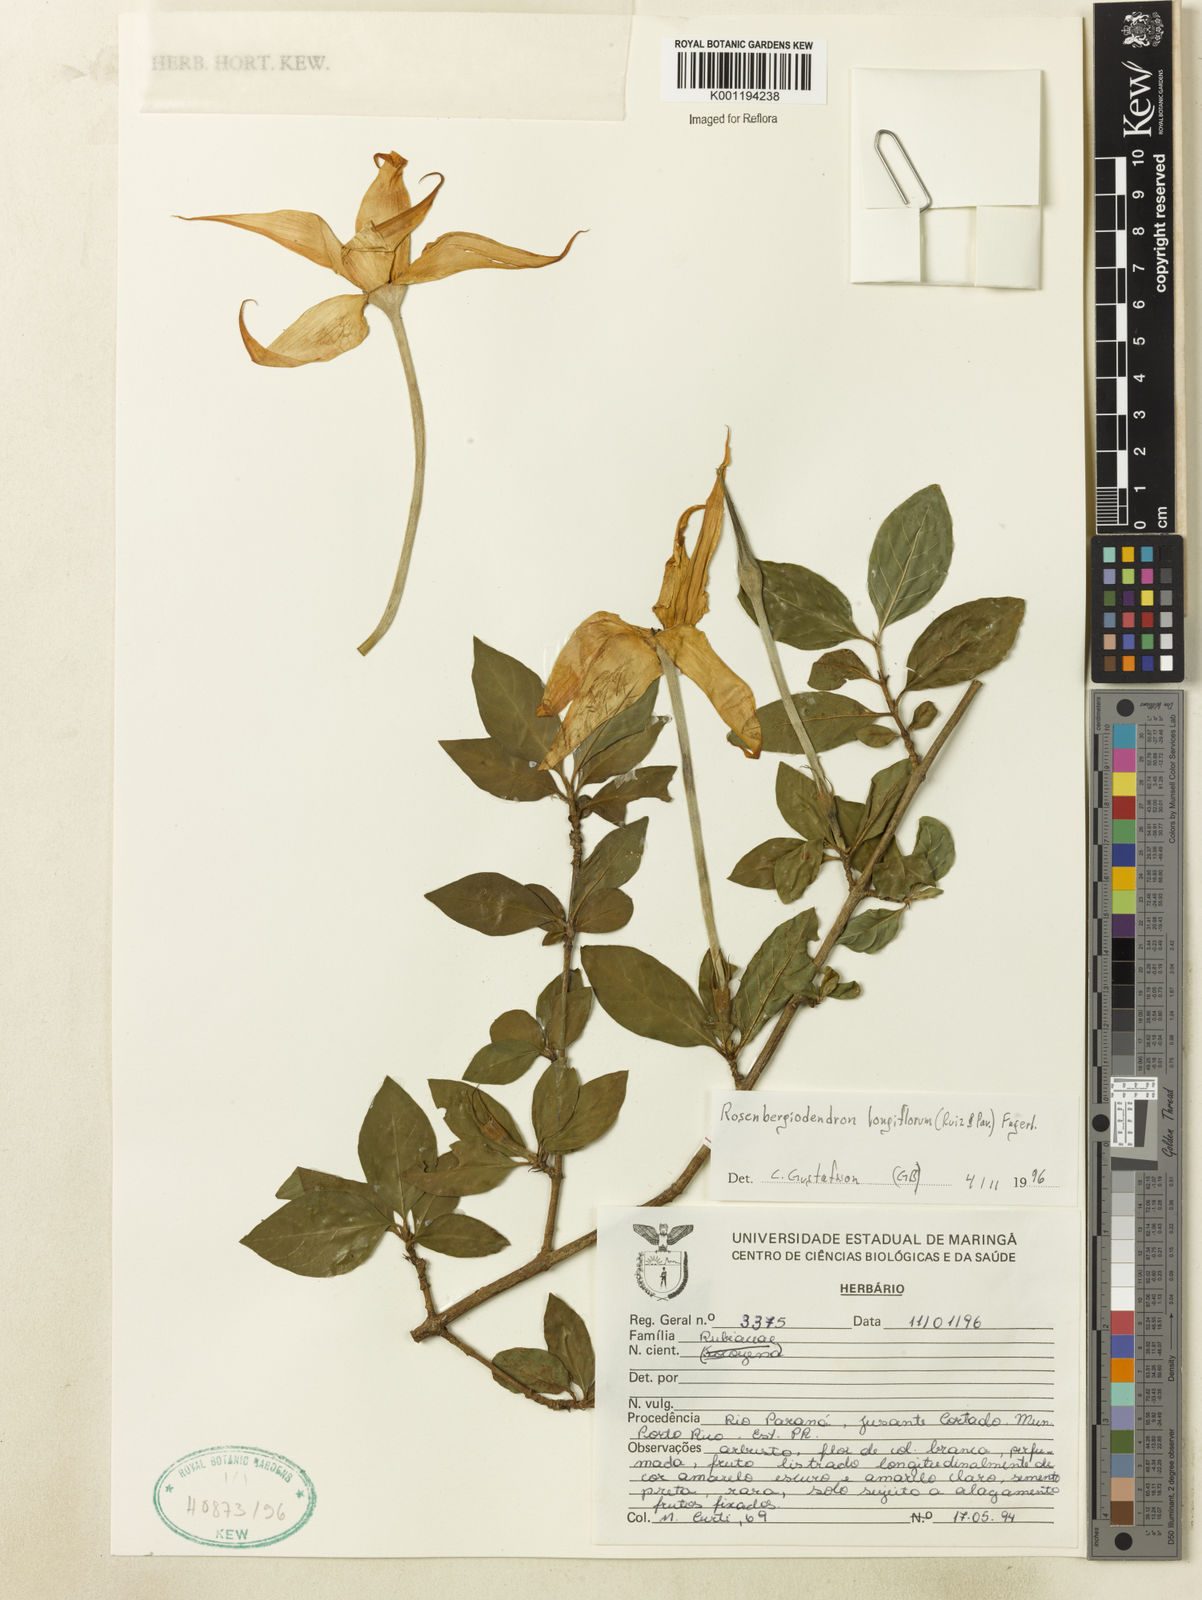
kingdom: Plantae
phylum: Tracheophyta
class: Magnoliopsida
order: Gentianales
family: Rubiaceae
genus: Rosenbergiodendron
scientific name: Rosenbergiodendron longiflorum
